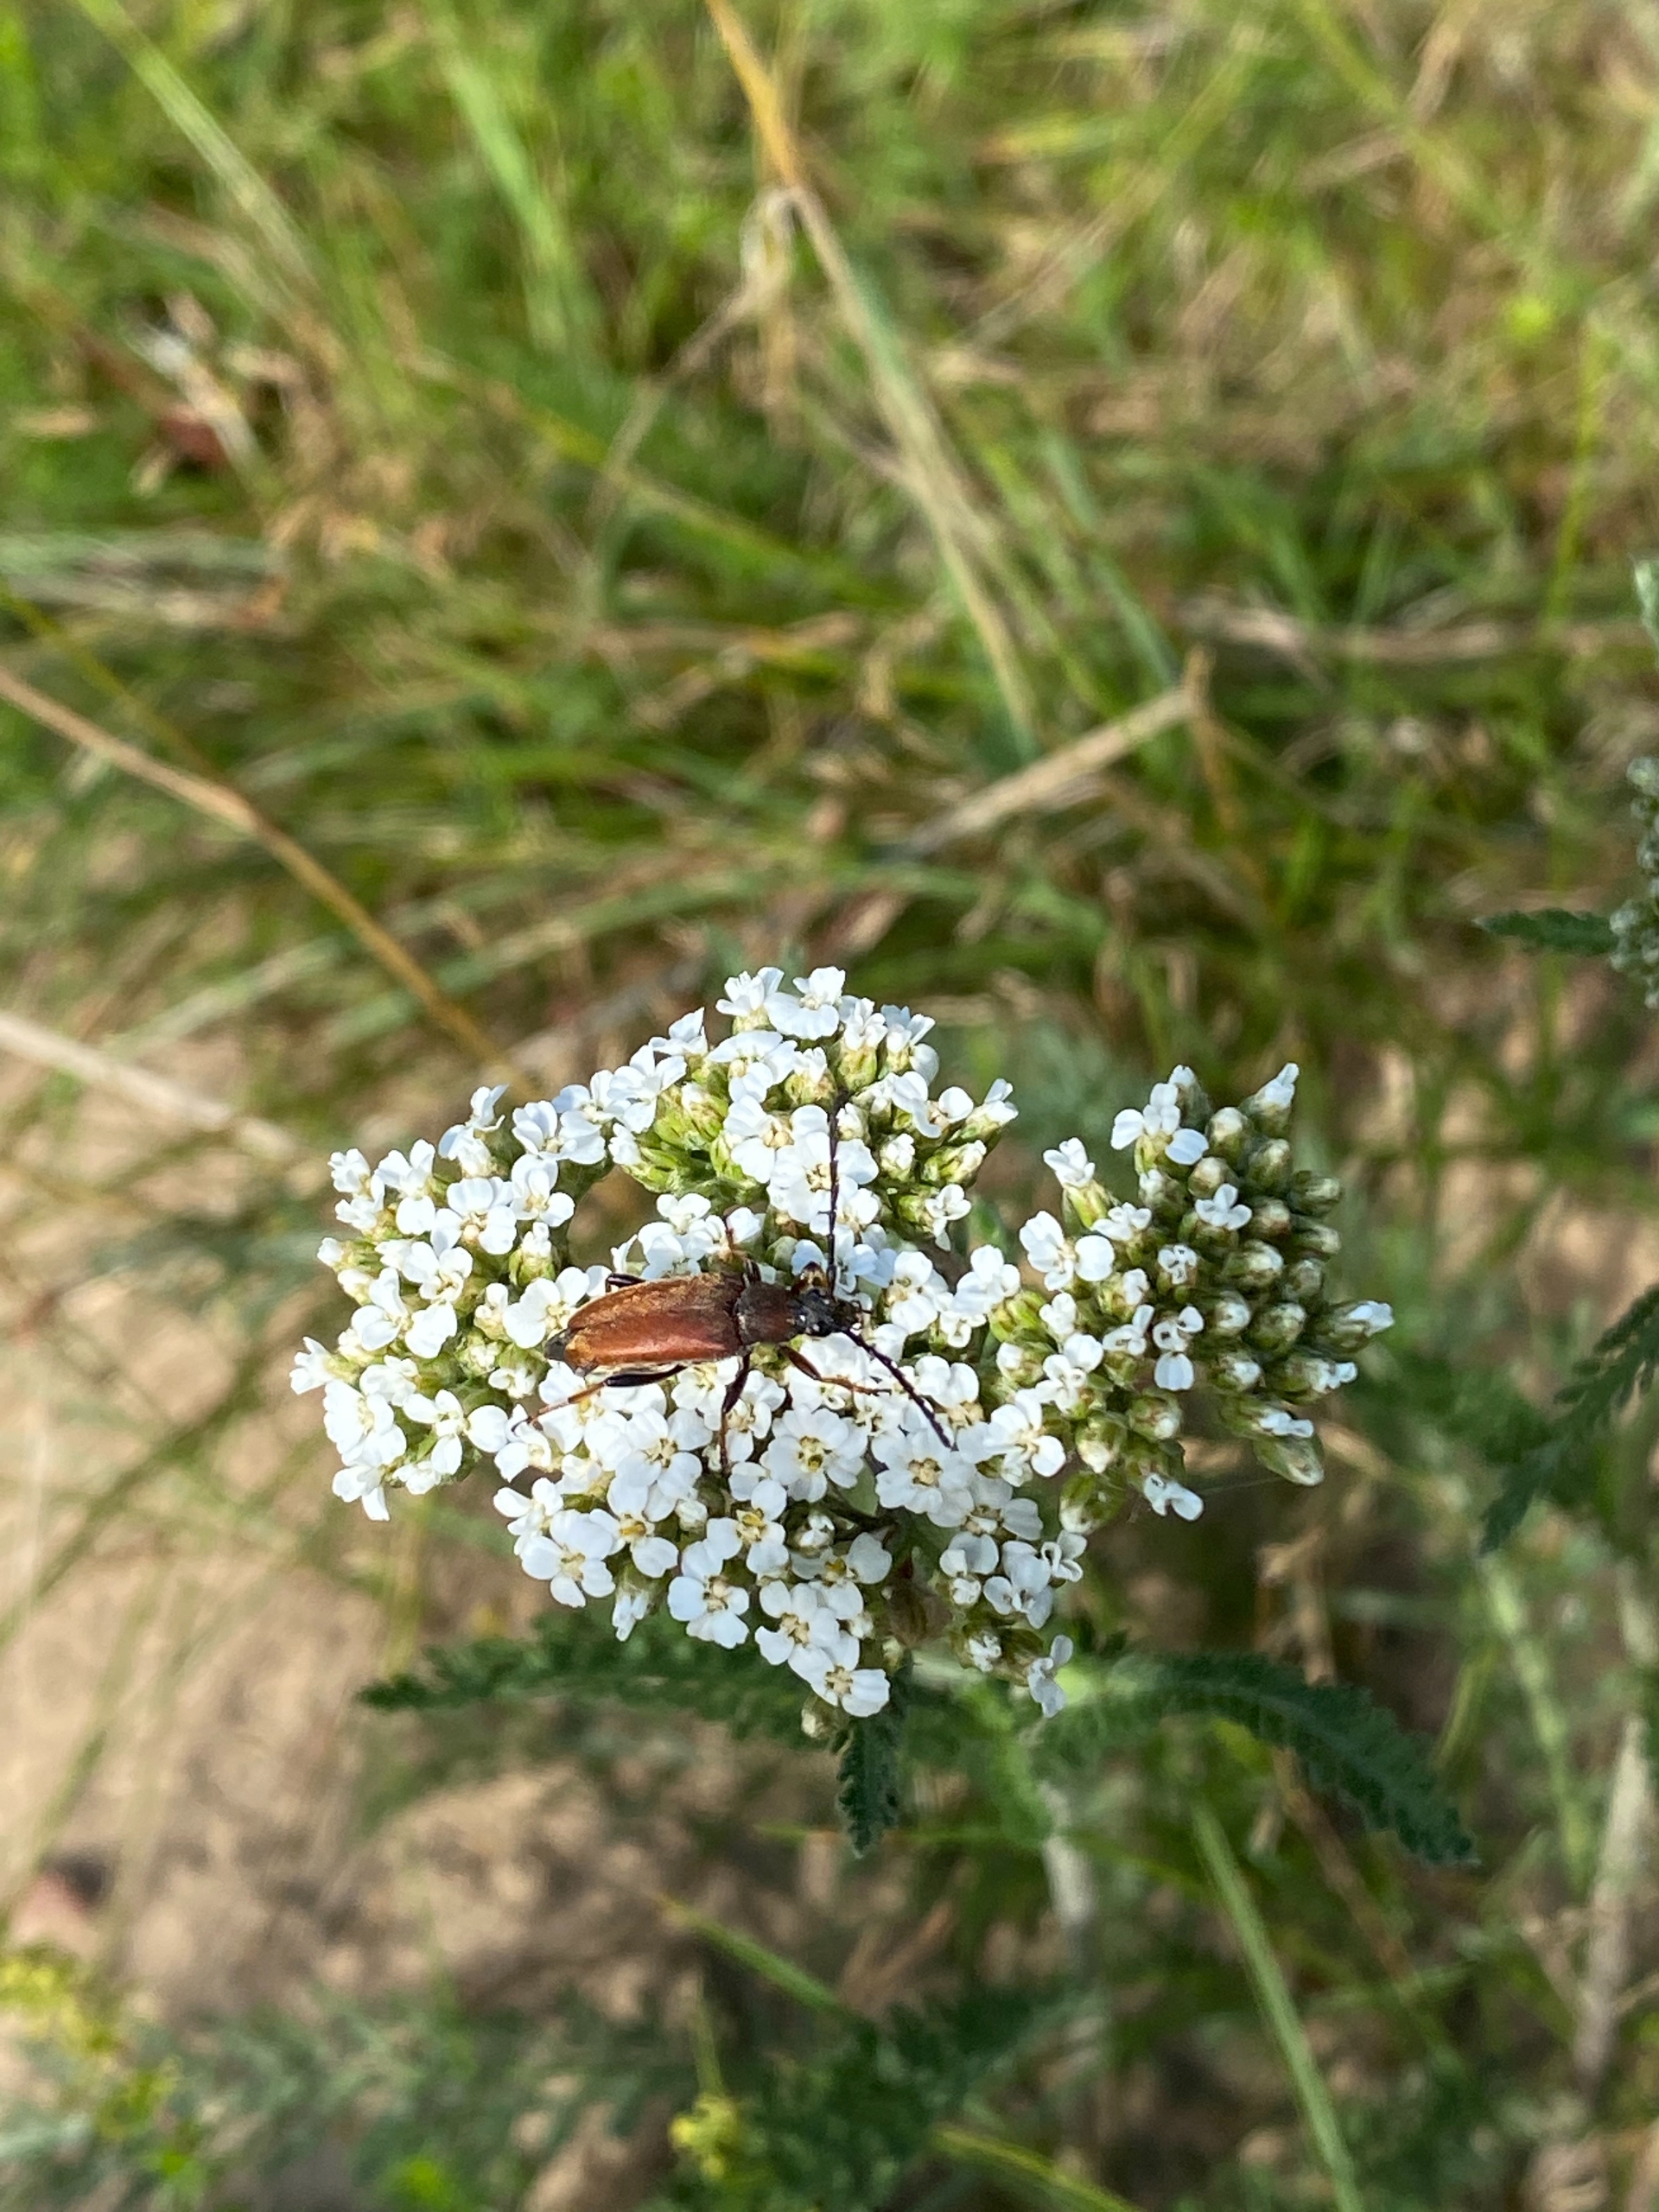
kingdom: Animalia
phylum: Arthropoda
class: Insecta
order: Coleoptera
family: Cerambycidae
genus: Stictoleptura
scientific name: Stictoleptura rubra
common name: Rød blomsterbuk
